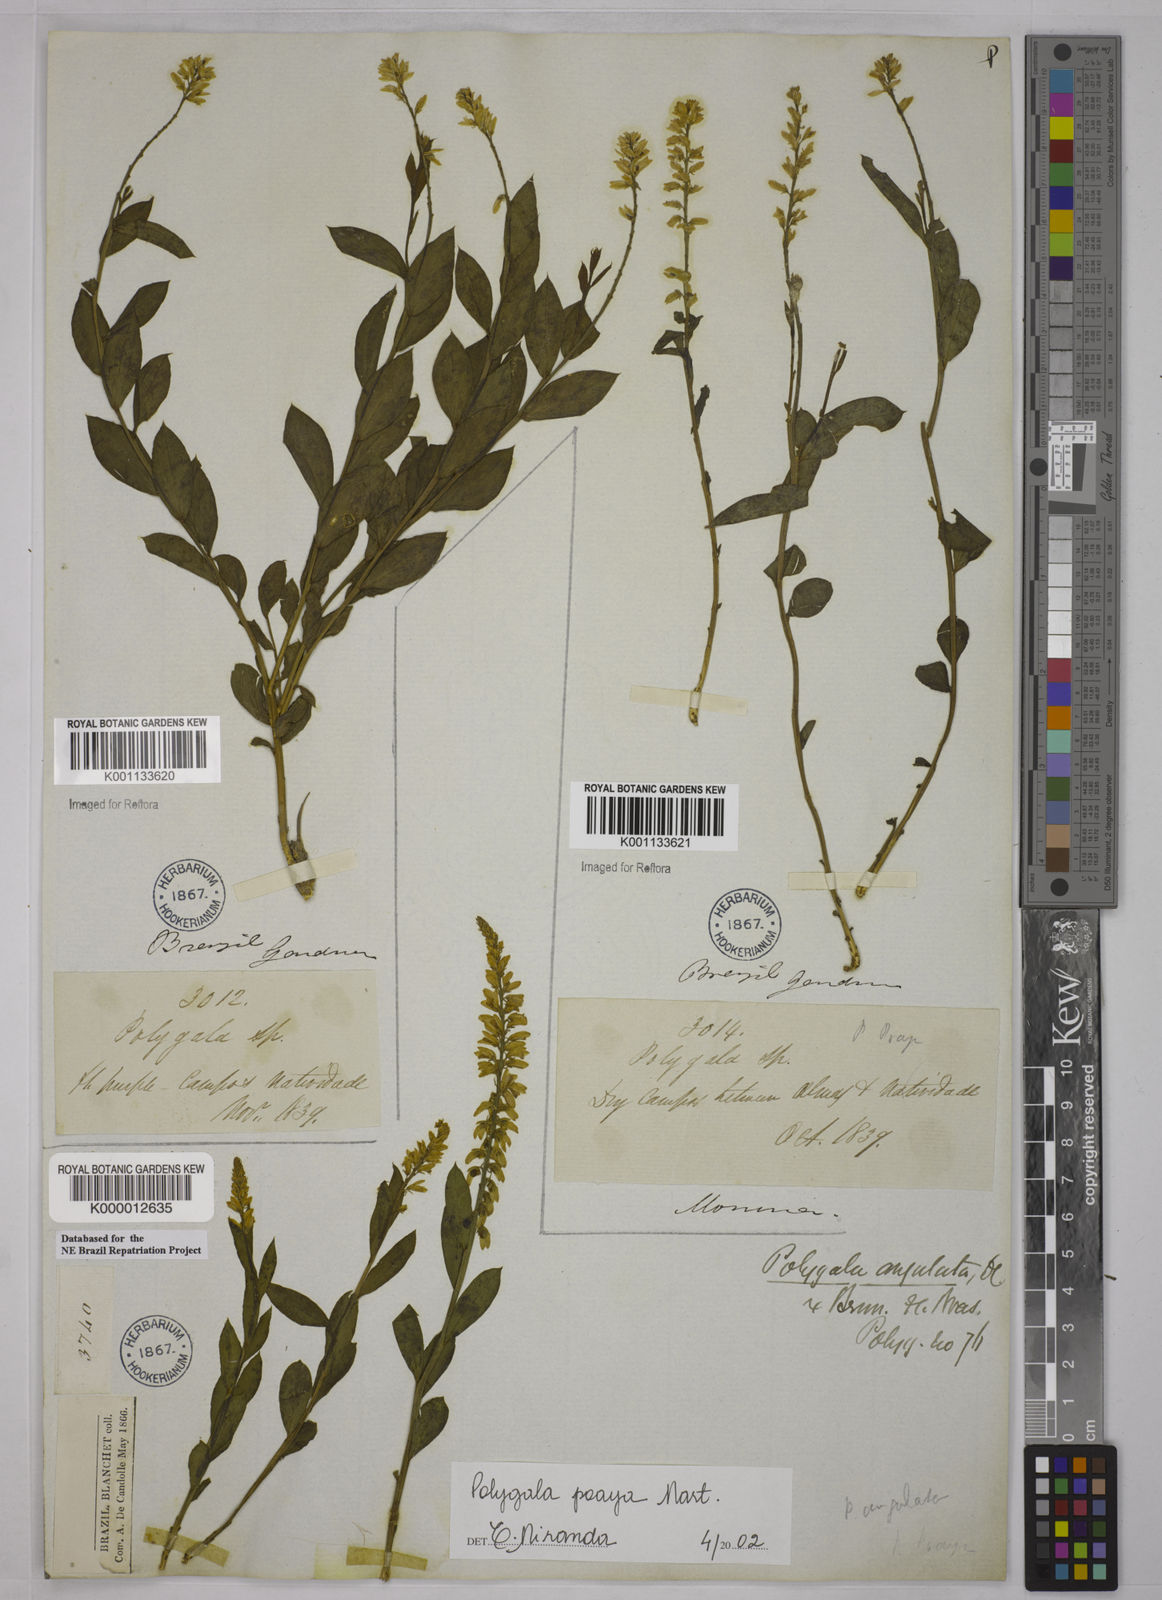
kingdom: Plantae
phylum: Tracheophyta
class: Magnoliopsida
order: Fabales
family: Polygalaceae
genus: Polygala
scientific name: Polygala poaya
